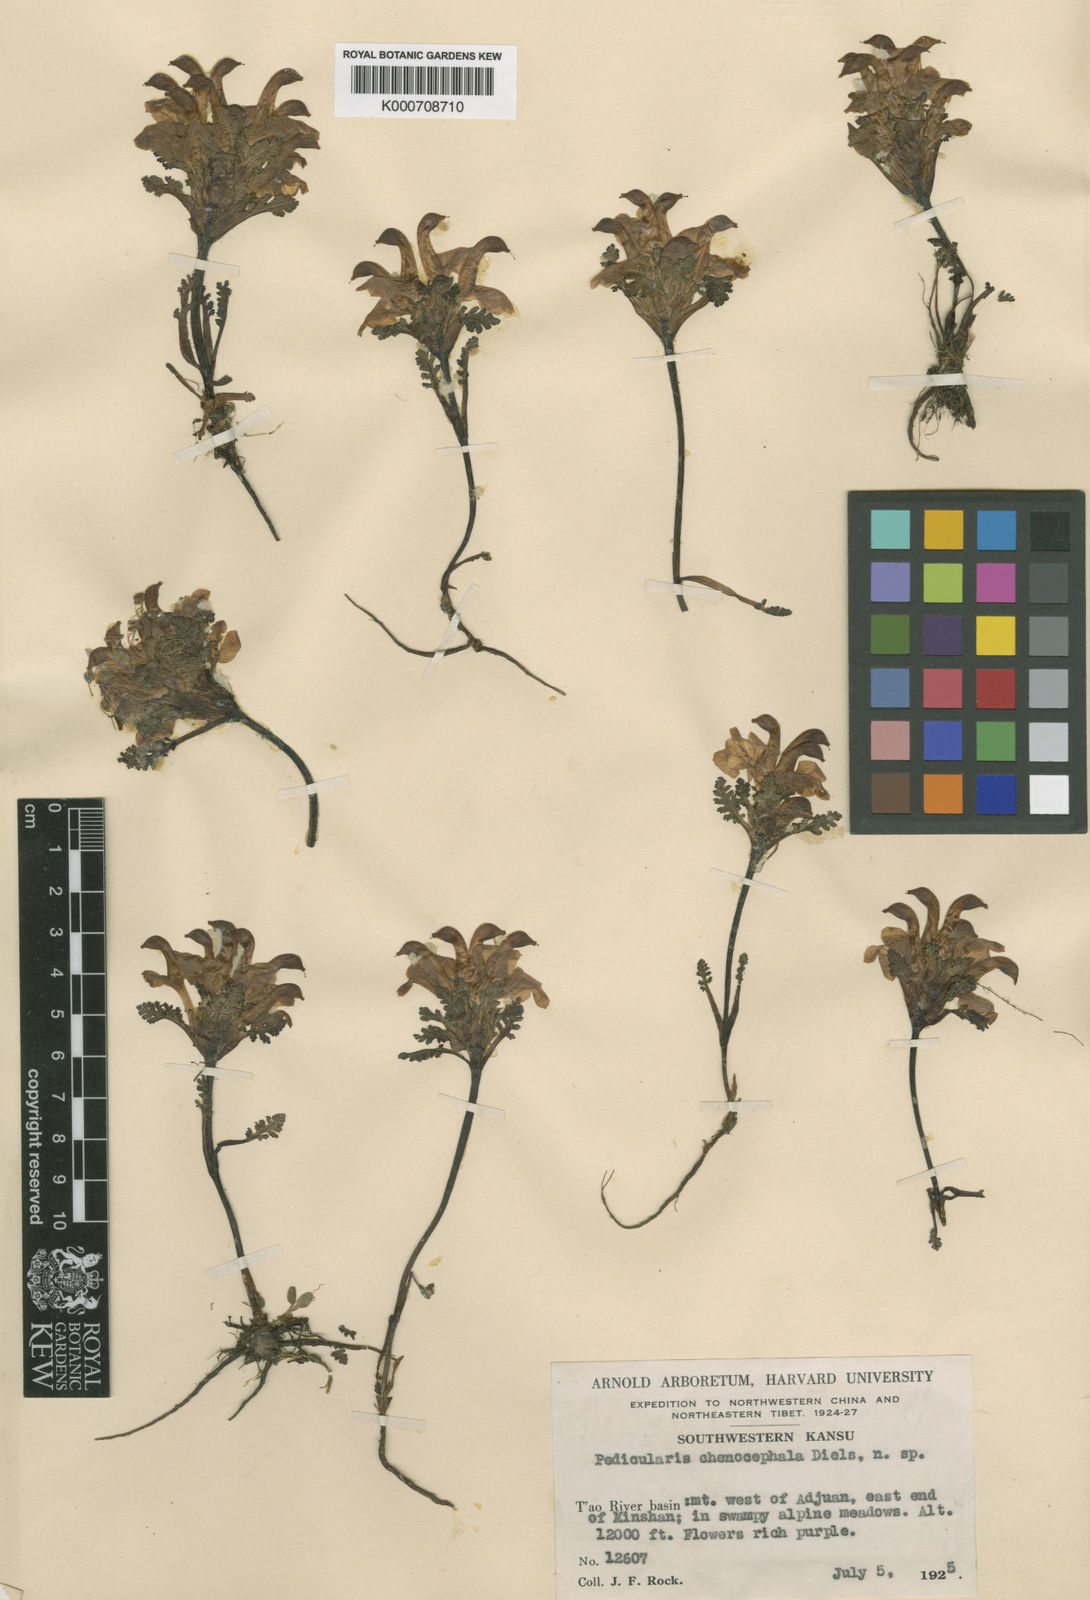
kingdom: Plantae
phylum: Tracheophyta
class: Magnoliopsida
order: Lamiales
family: Orobanchaceae
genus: Pedicularis
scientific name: Pedicularis chenocephala
